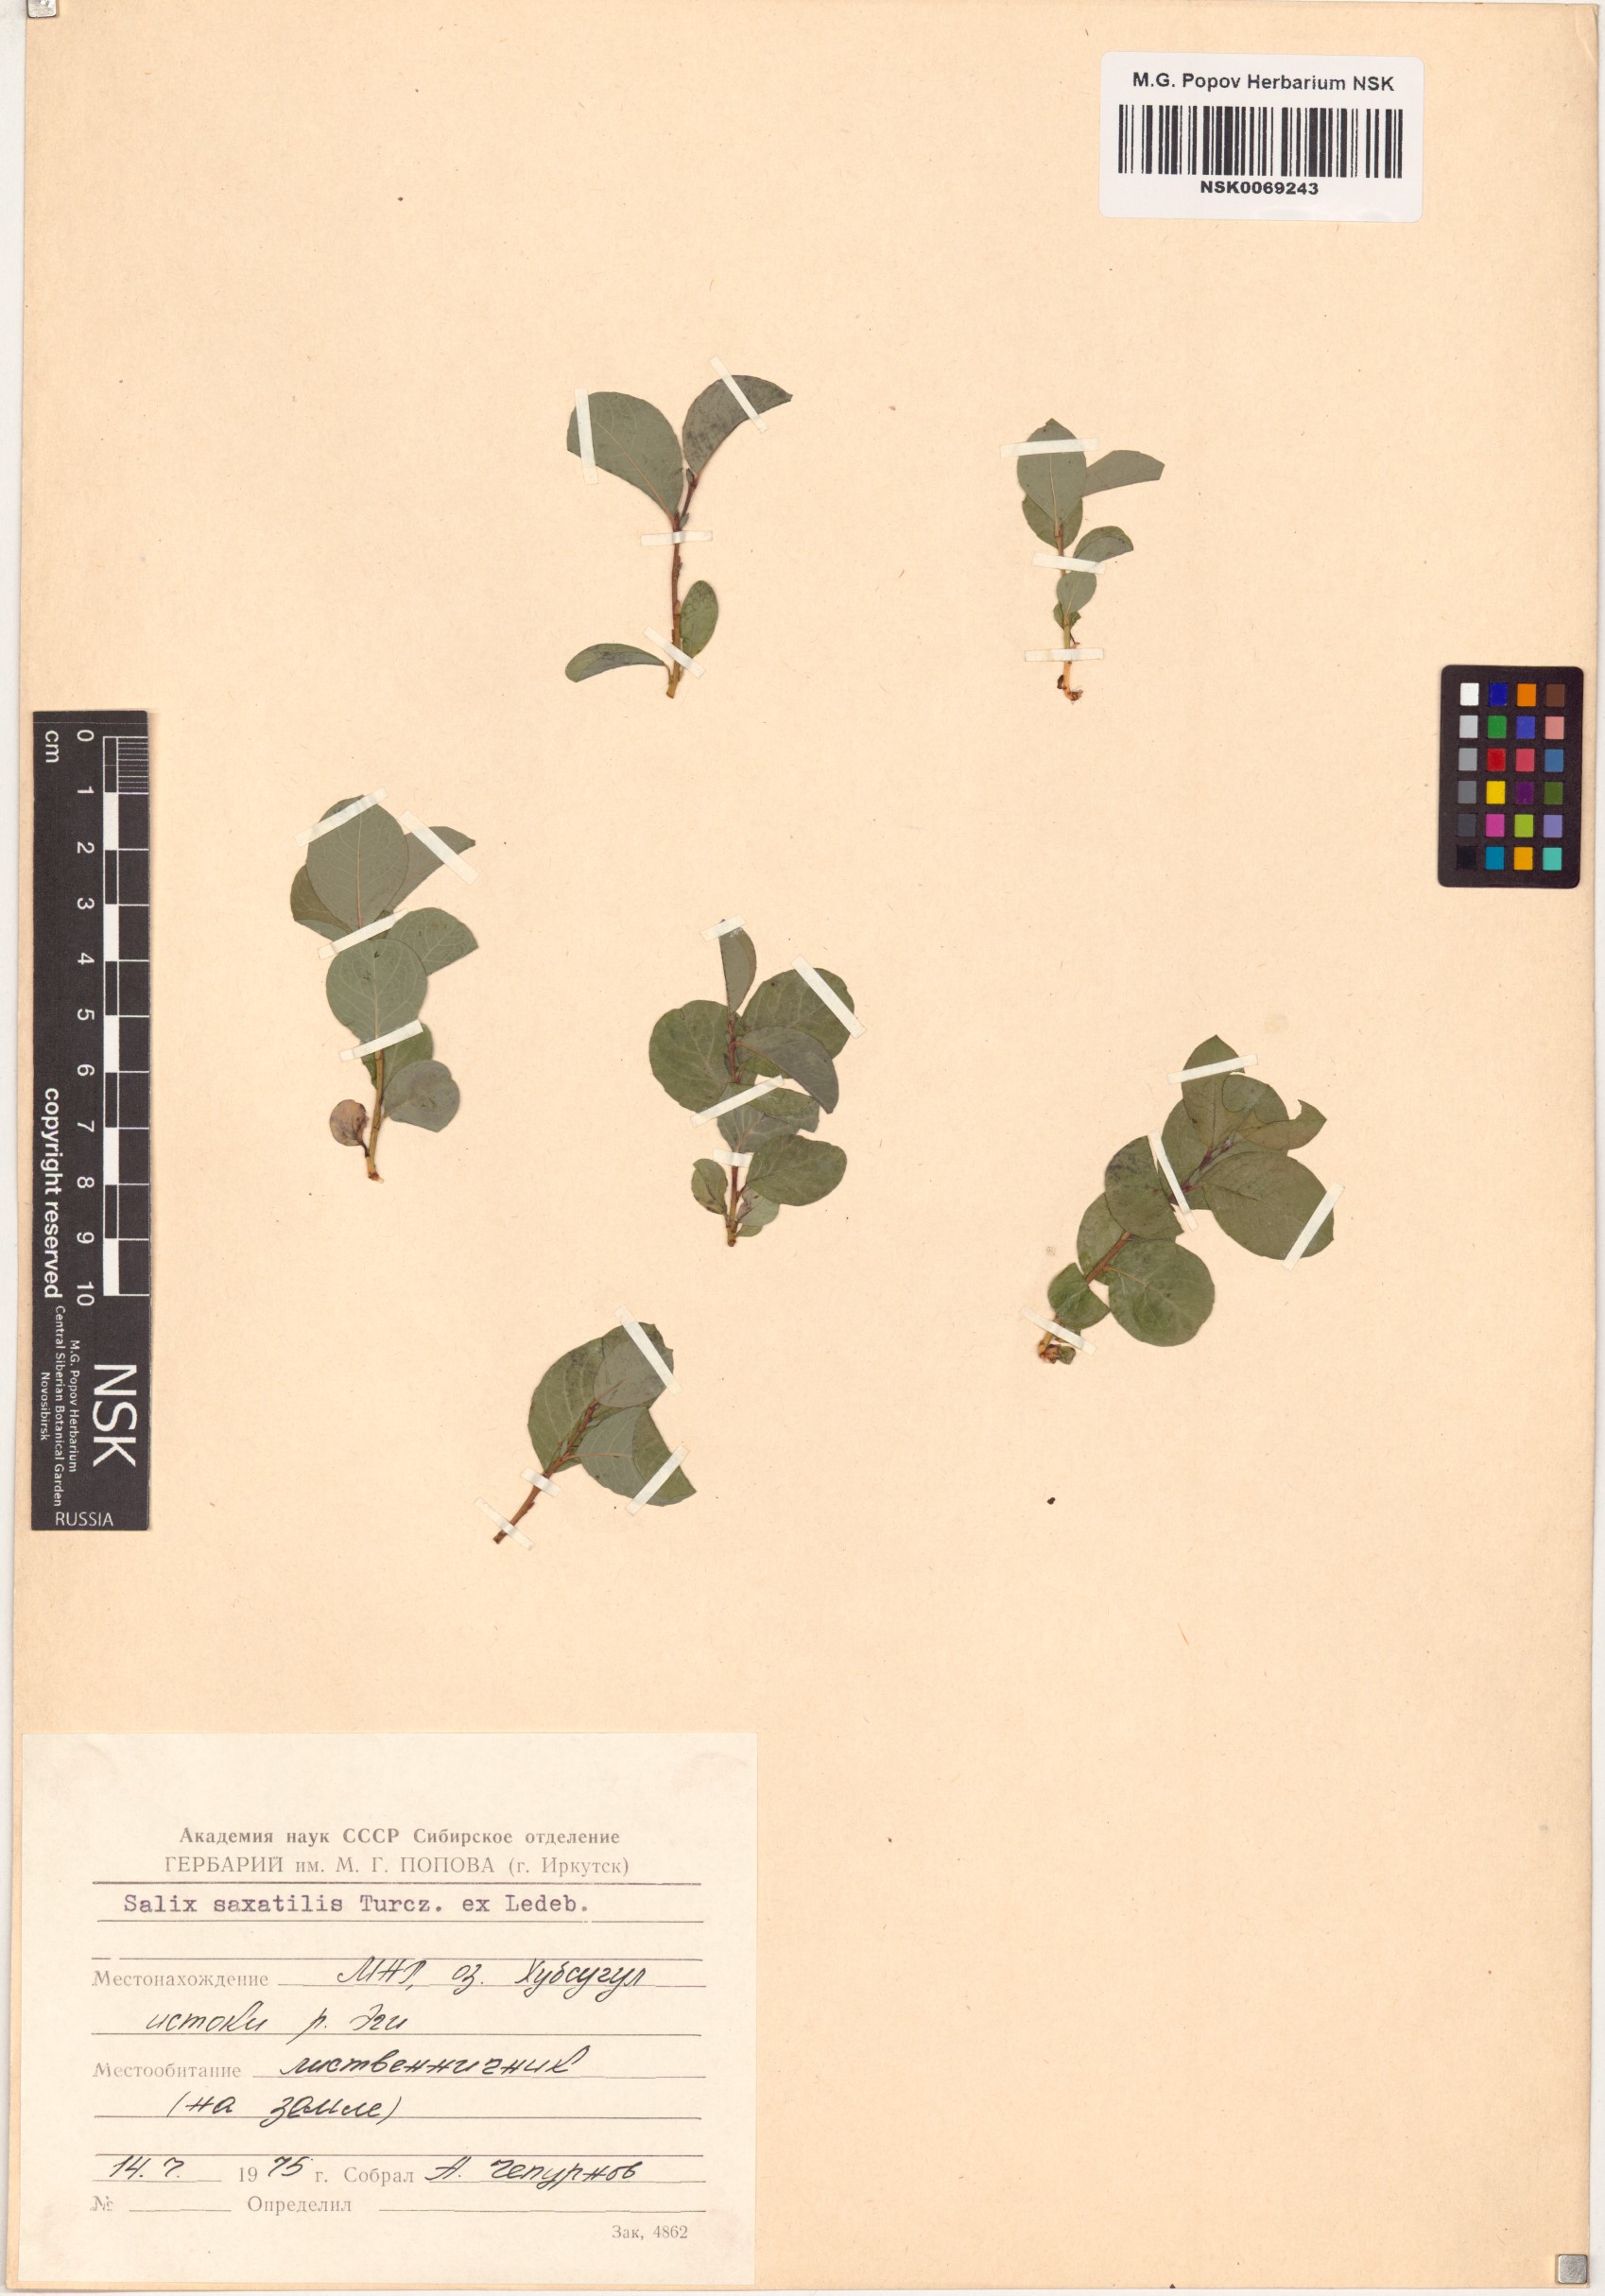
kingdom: Plantae
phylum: Tracheophyta
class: Magnoliopsida
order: Malpighiales
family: Salicaceae
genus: Salix
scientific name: Salix saxatilis
